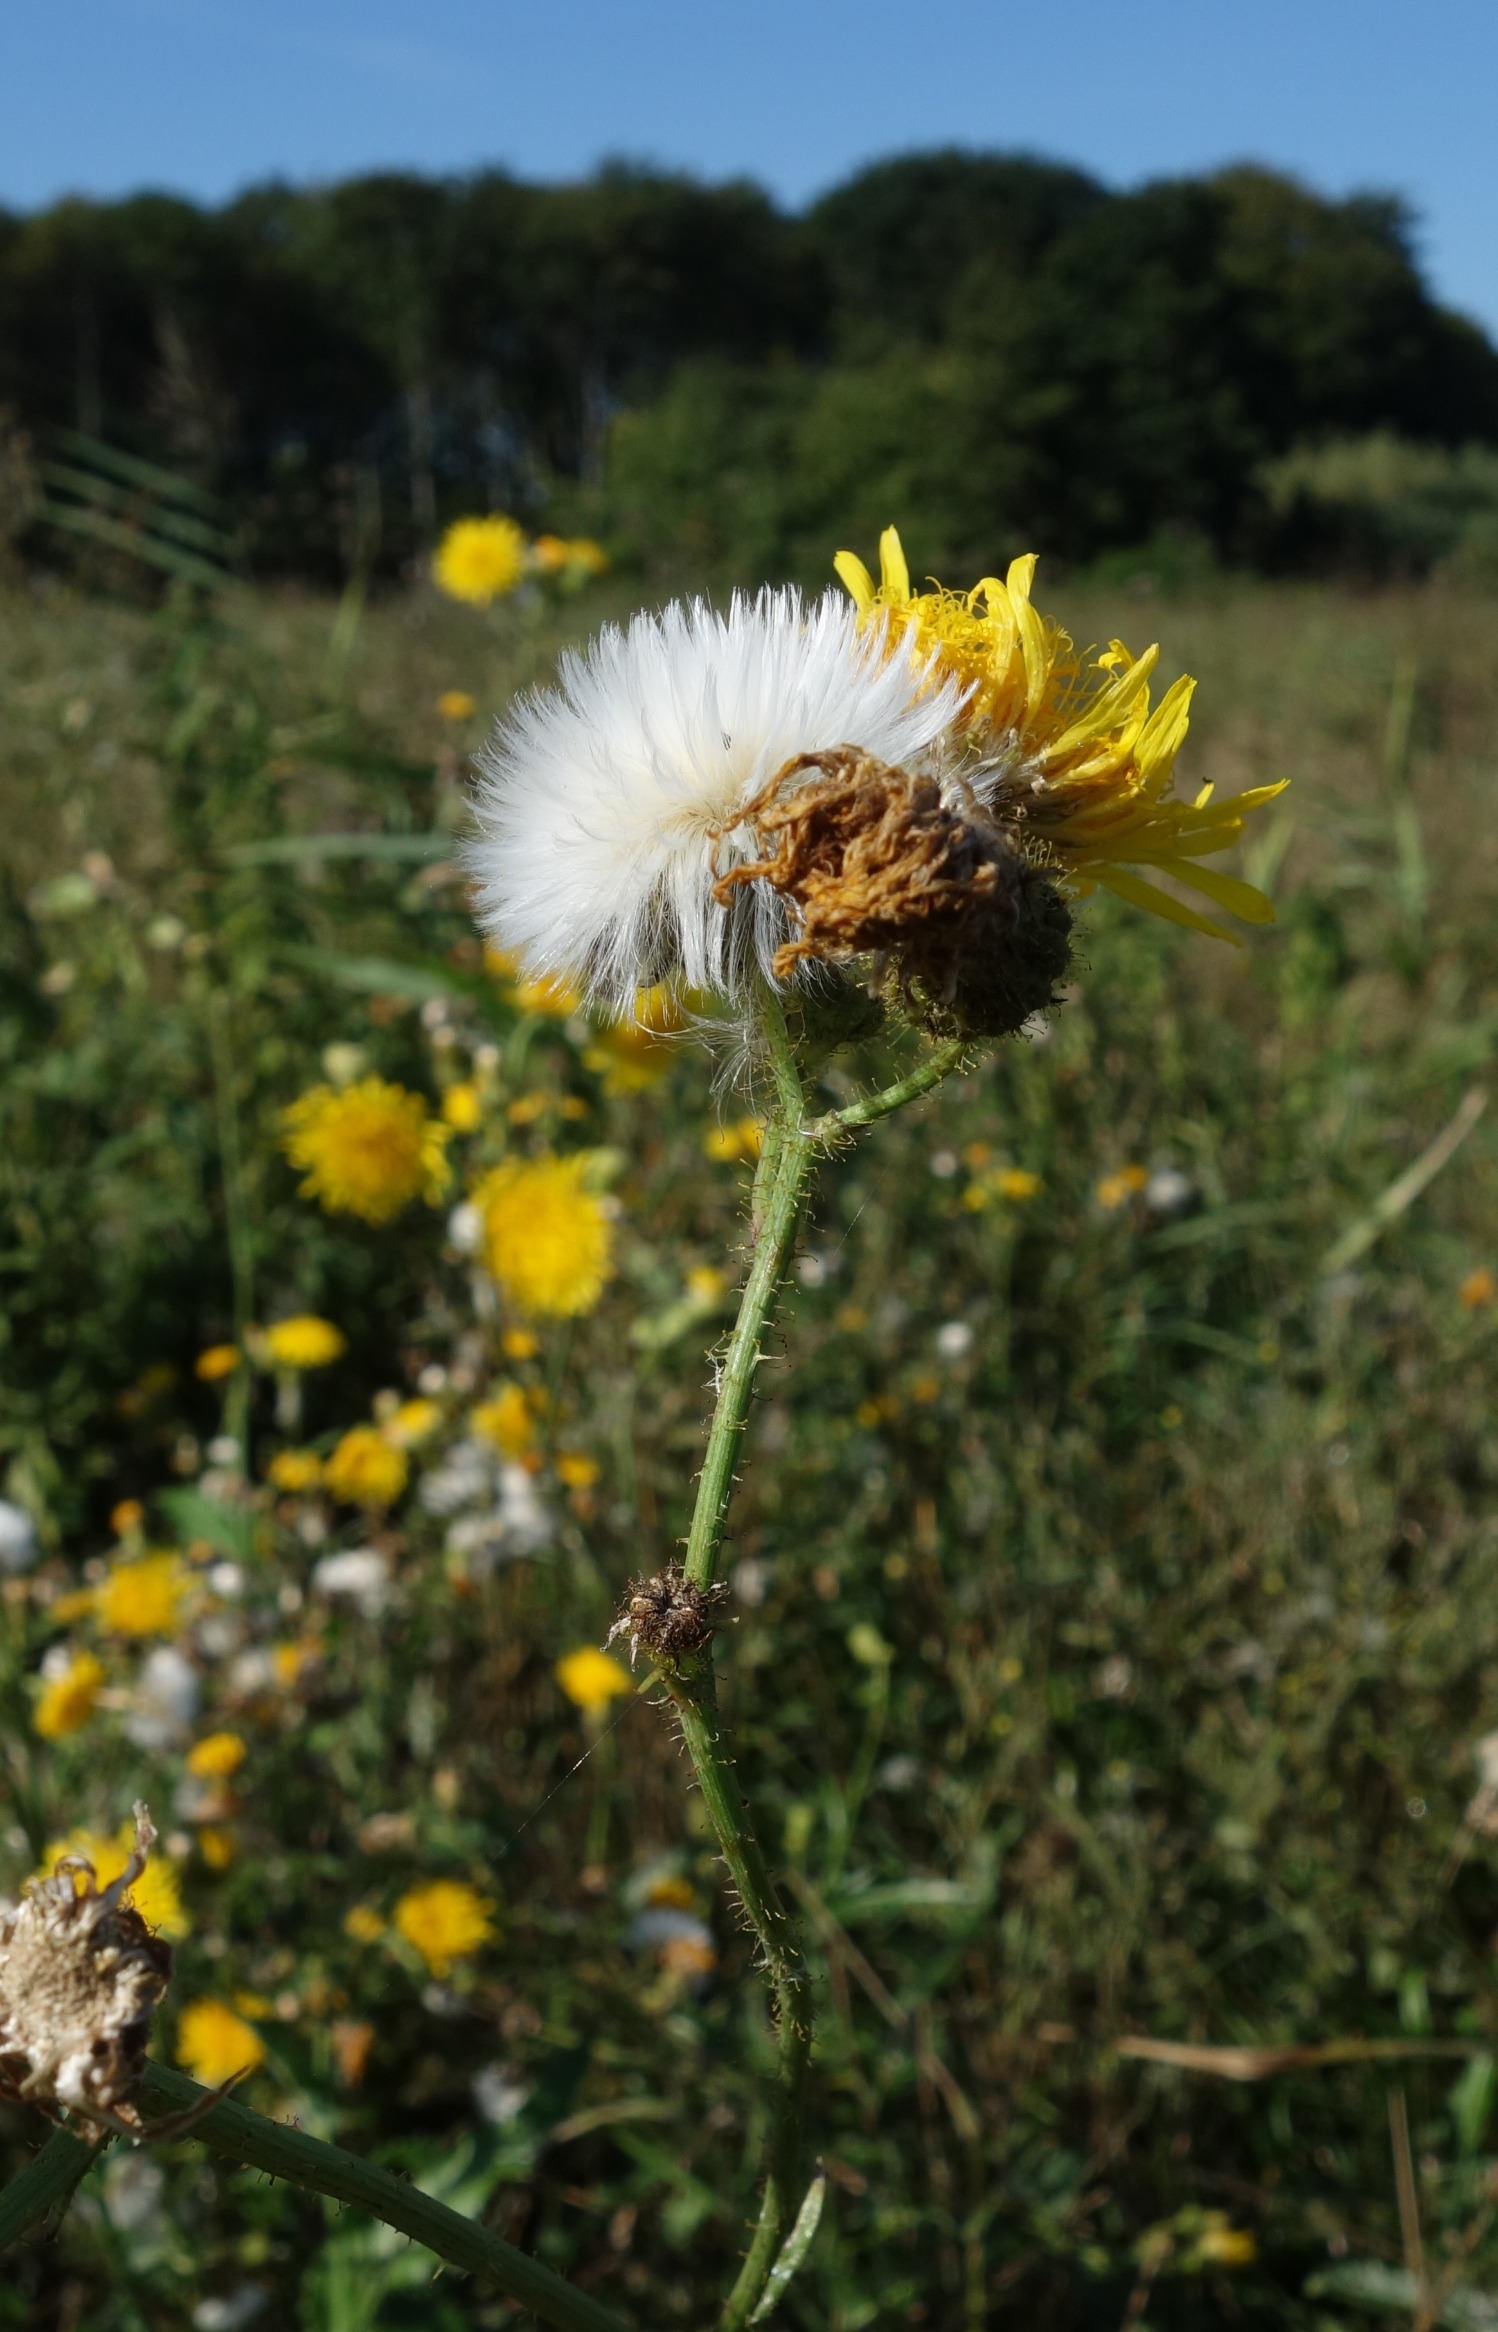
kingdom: Plantae
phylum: Tracheophyta
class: Magnoliopsida
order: Asterales
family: Asteraceae
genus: Sonchus
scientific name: Sonchus arvensis
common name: Ager-svinemælk
